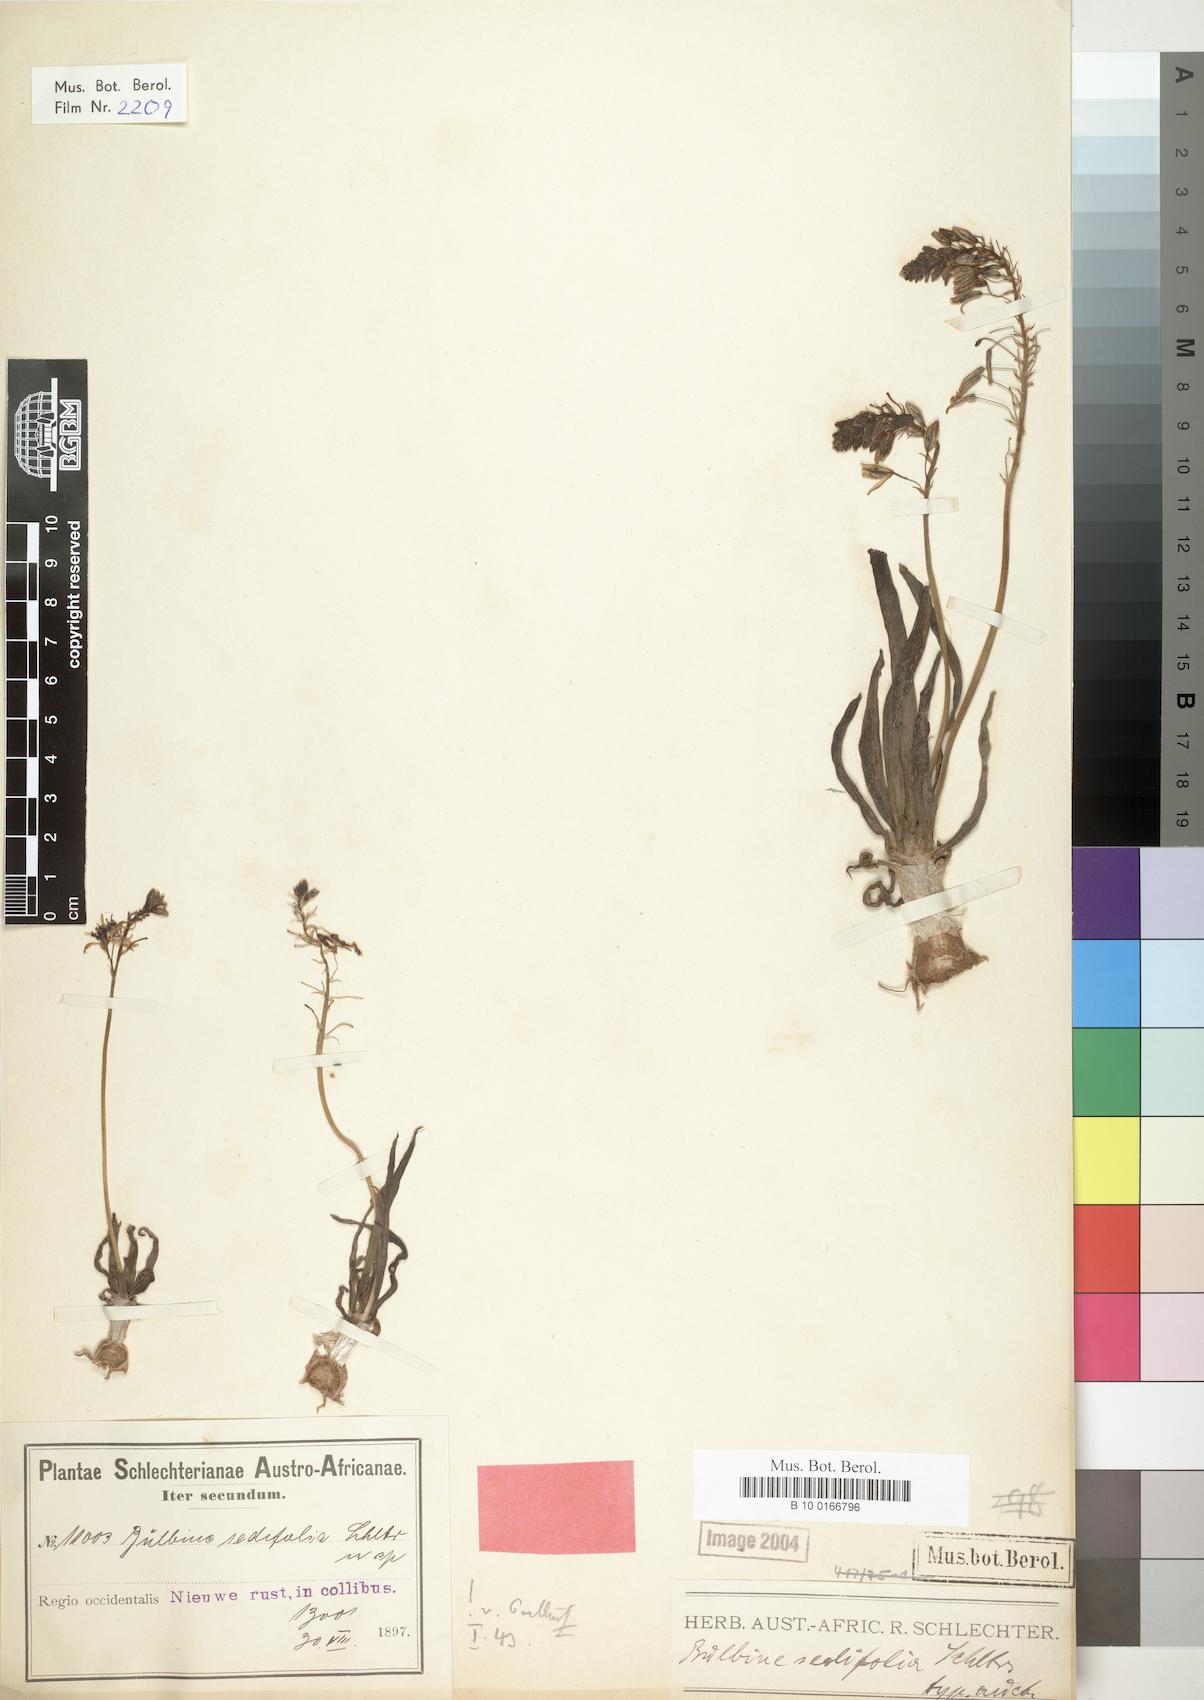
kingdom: Plantae
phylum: Tracheophyta
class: Liliopsida
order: Asparagales
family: Asphodelaceae
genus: Bulbine
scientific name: Bulbine sedifolia
